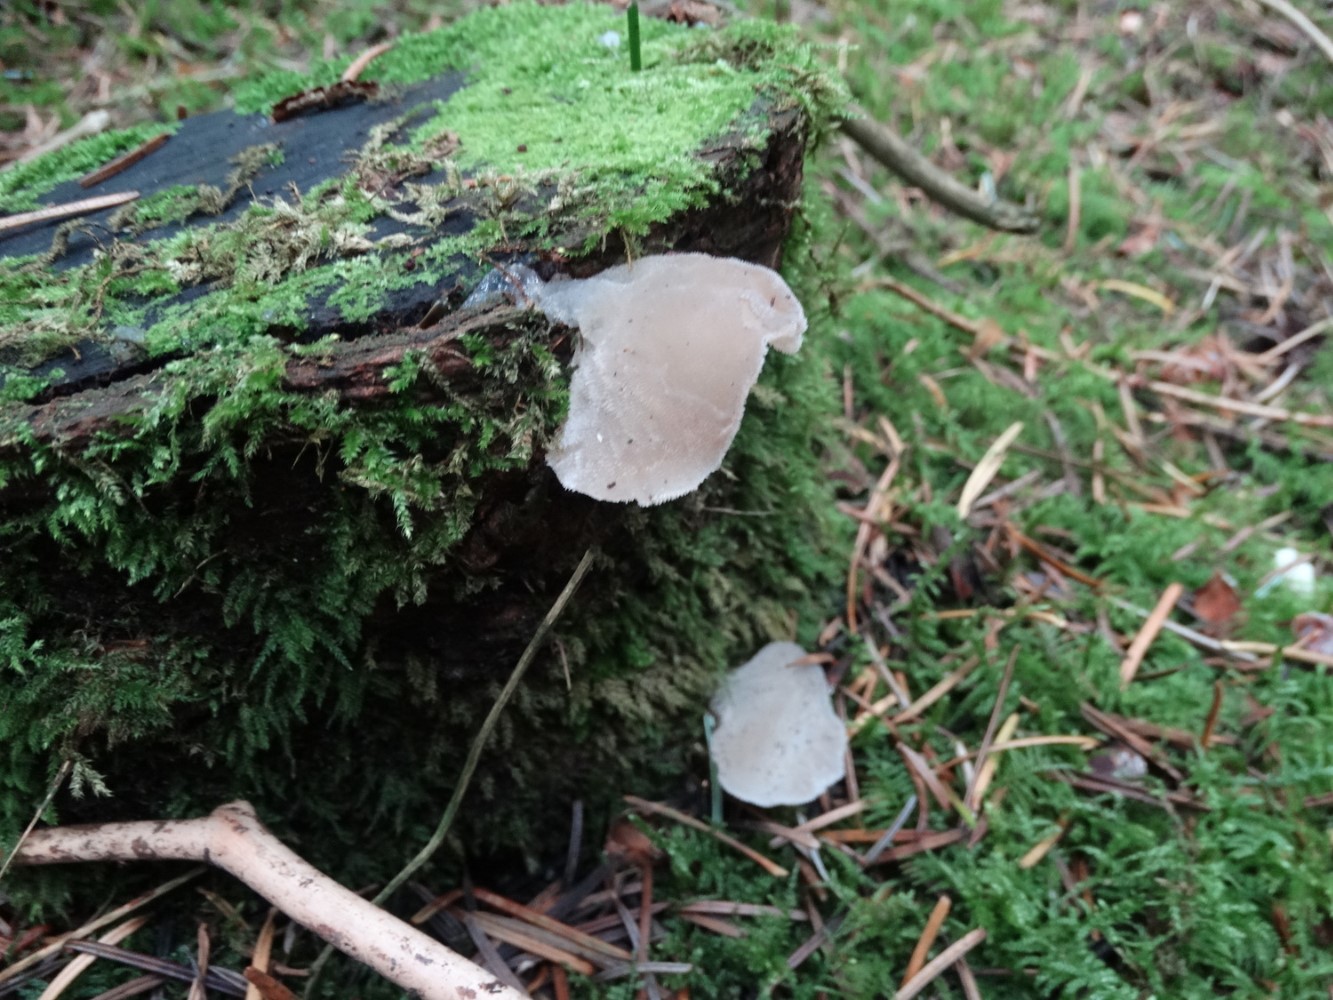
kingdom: Fungi
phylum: Basidiomycota
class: Agaricomycetes
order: Auriculariales
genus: Pseudohydnum
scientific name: Pseudohydnum gelatinosum
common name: bævretand
